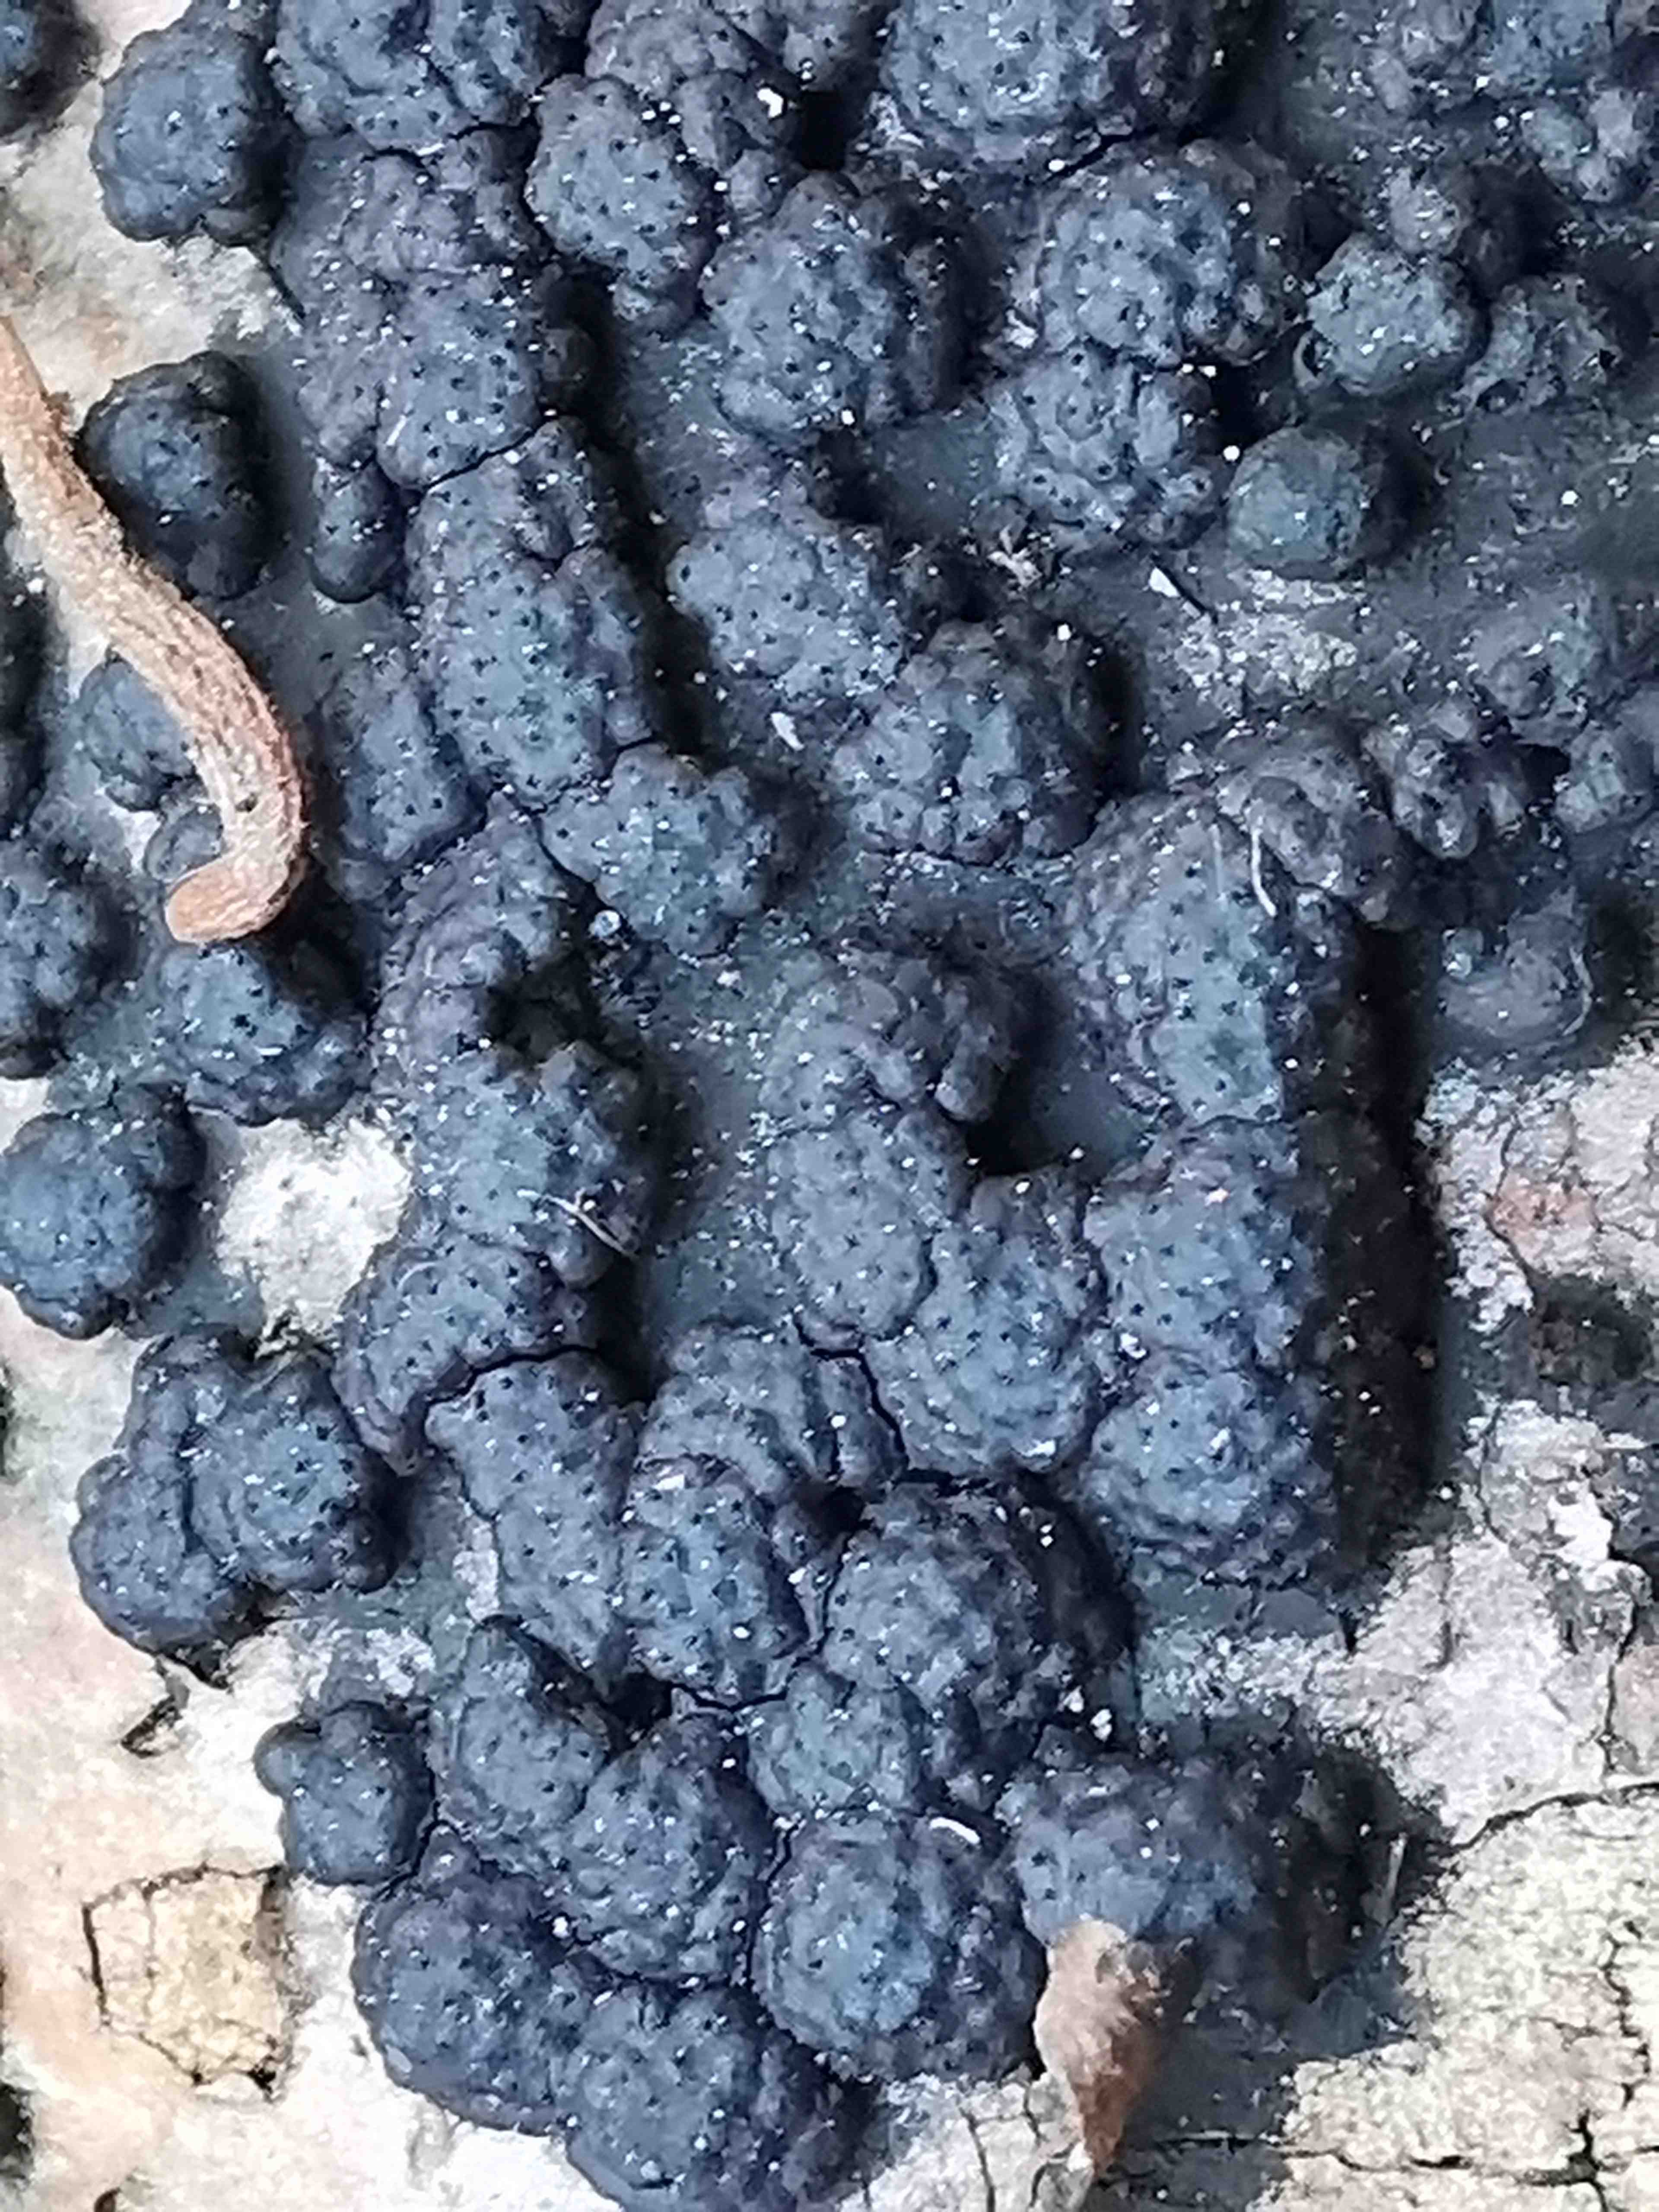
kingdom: Fungi
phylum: Ascomycota
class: Sordariomycetes
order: Xylariales
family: Hypoxylaceae
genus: Jackrogersella
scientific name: Jackrogersella cohaerens
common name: sammenflydende kulbær
